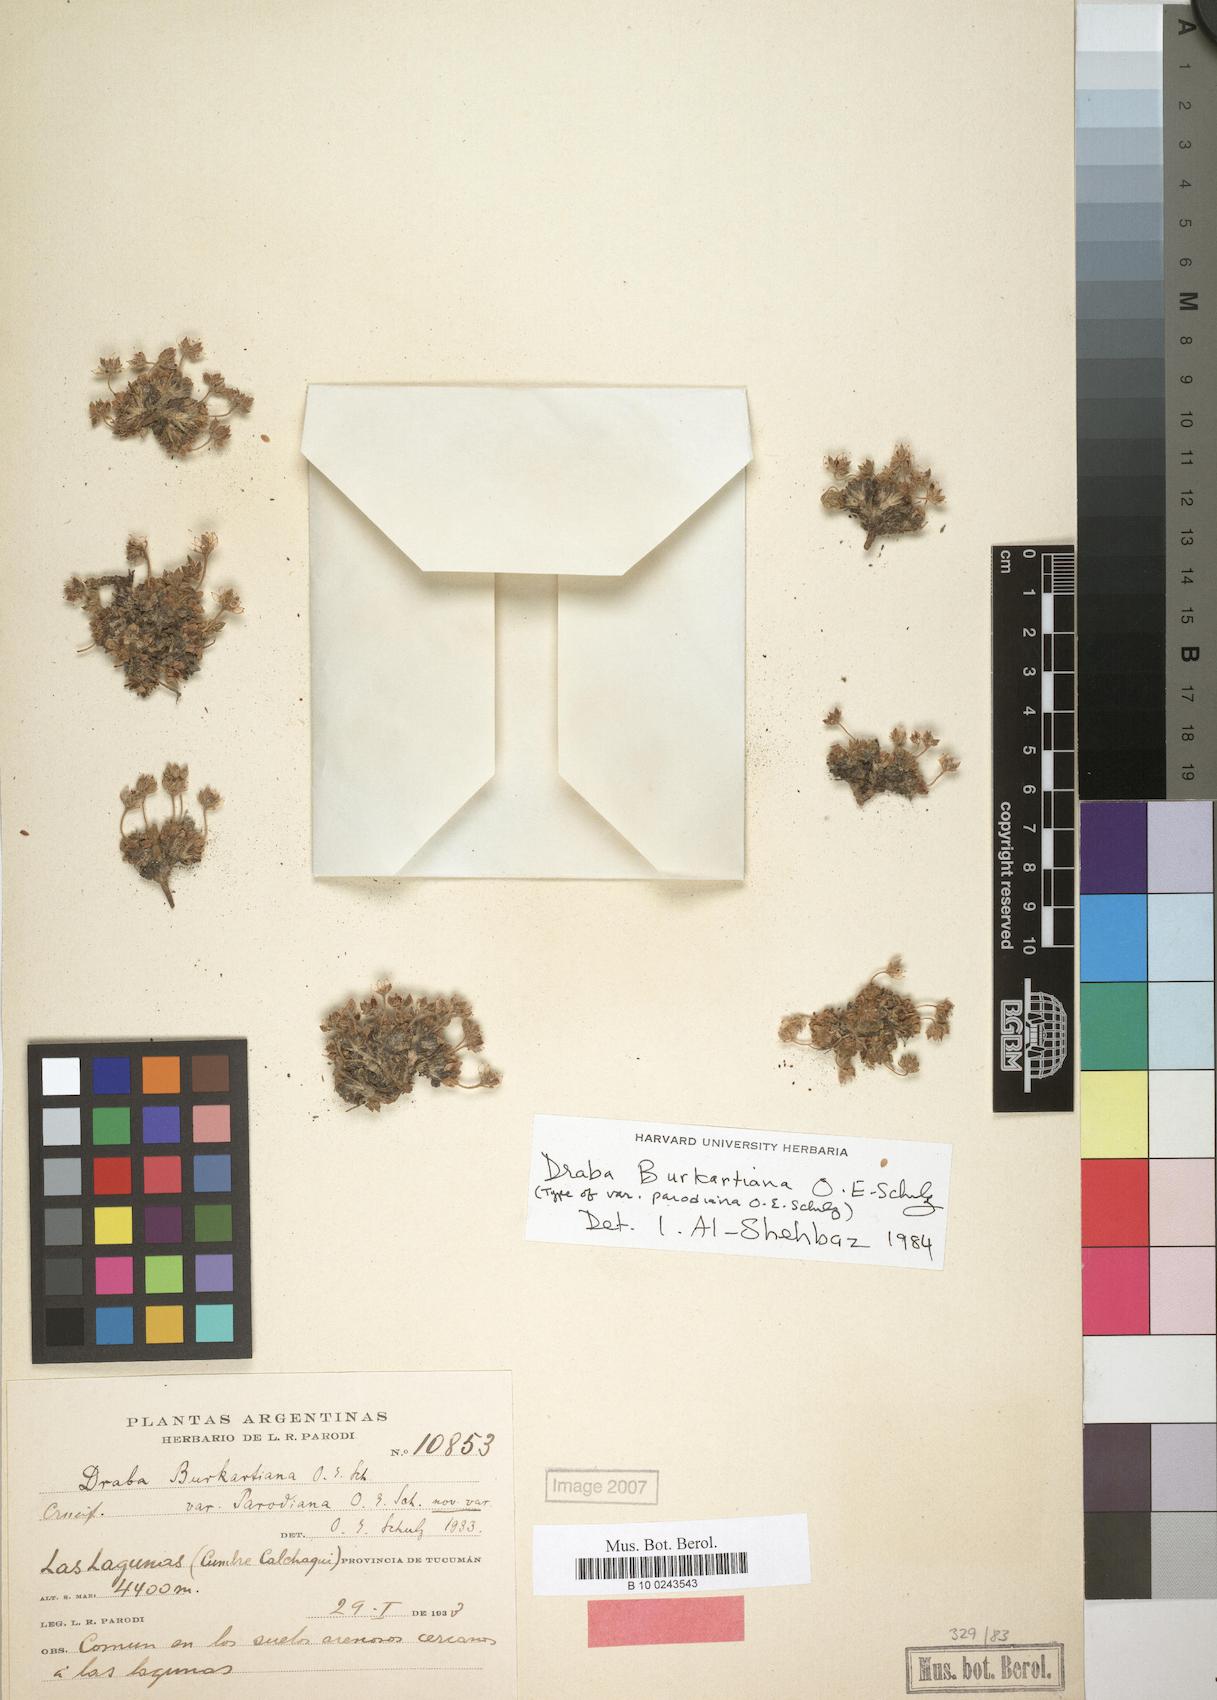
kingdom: Plantae
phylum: Tracheophyta
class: Magnoliopsida
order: Brassicales
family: Brassicaceae
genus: Draba
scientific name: Draba burkartiana
